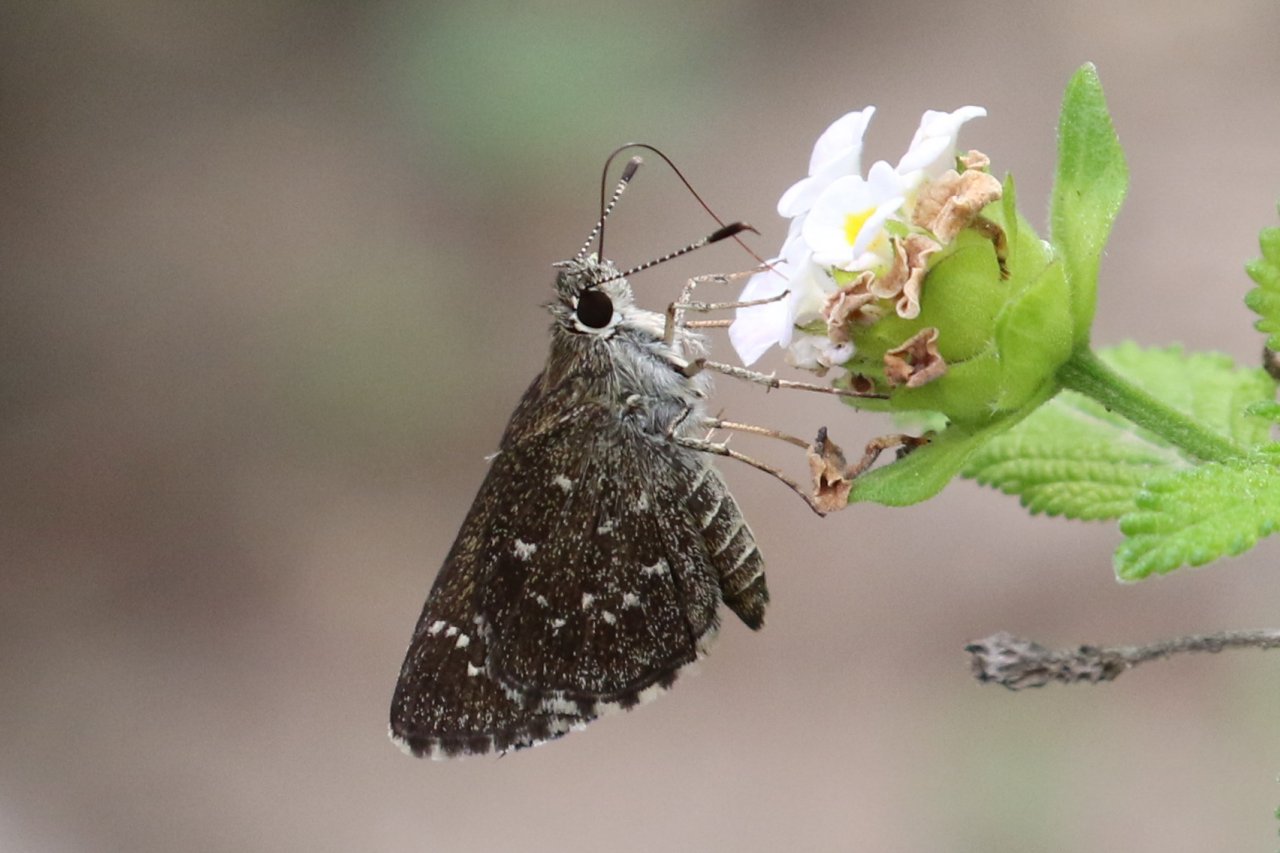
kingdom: Animalia
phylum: Arthropoda
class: Insecta
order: Lepidoptera
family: Hesperiidae
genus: Mastor
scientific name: Mastor celia
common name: Celia's Roadside-Skipper
